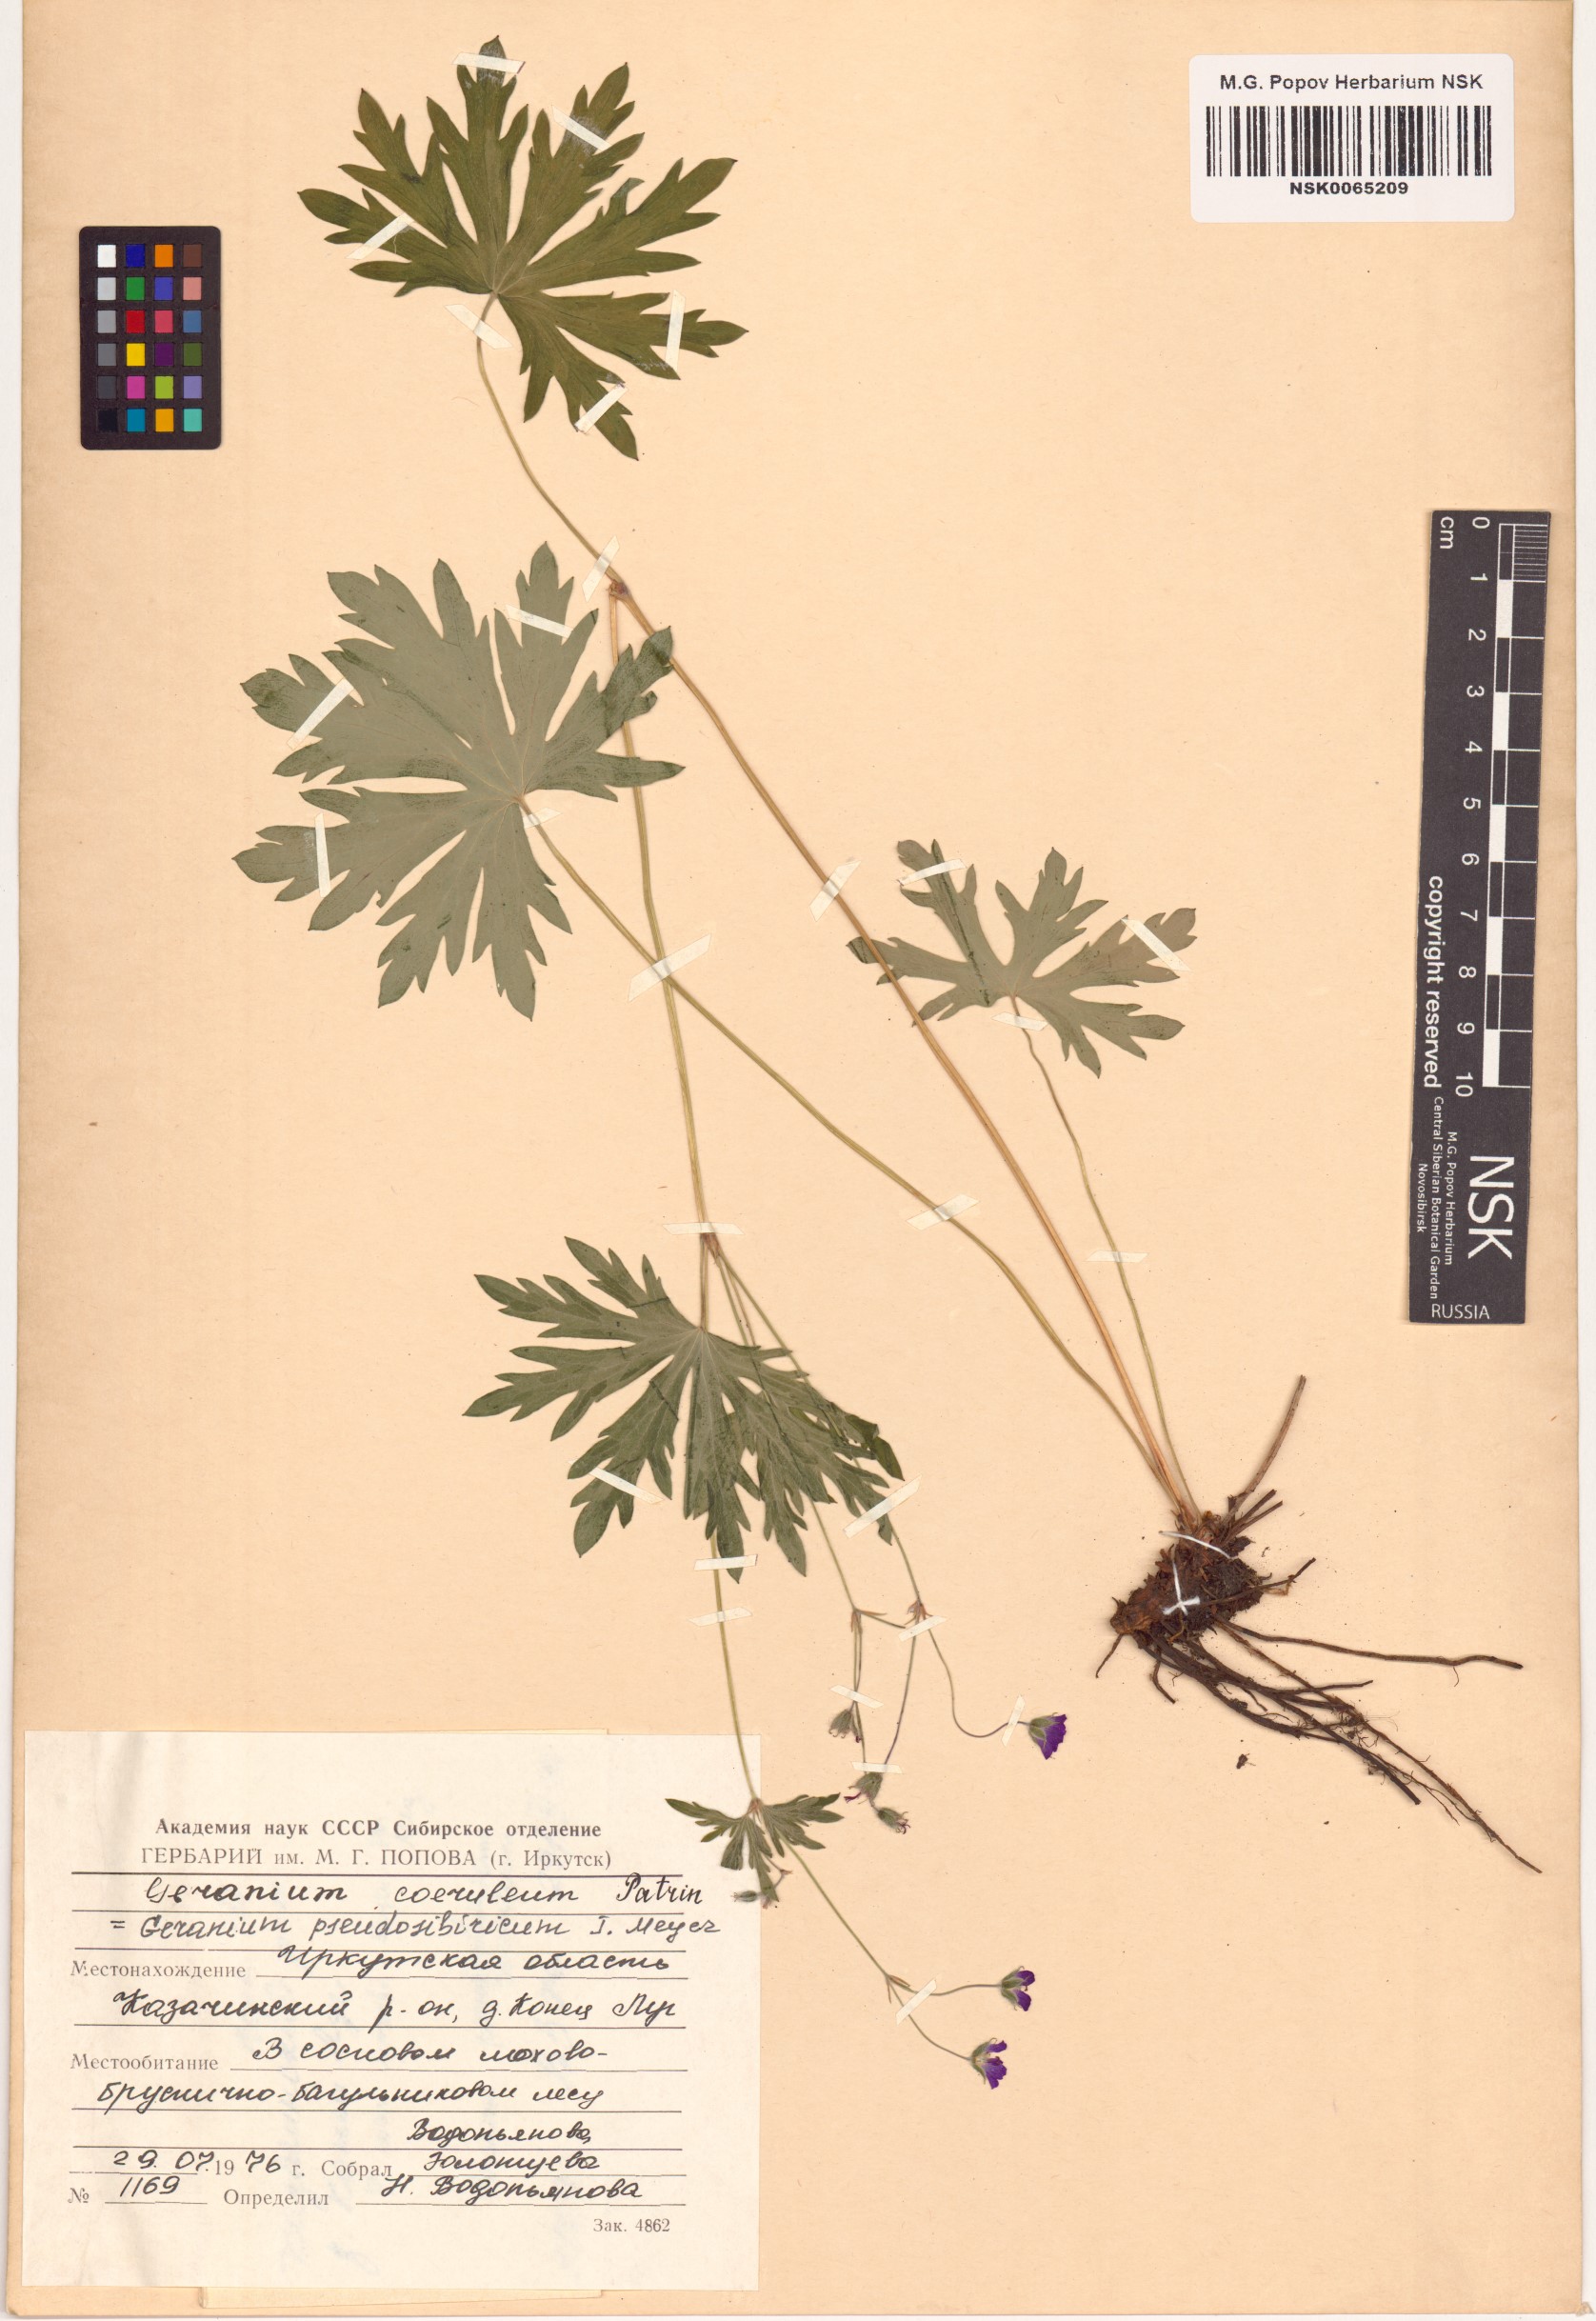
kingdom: Plantae
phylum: Tracheophyta
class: Magnoliopsida
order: Geraniales
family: Geraniaceae
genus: Geranium
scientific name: Geranium pseudosibiricum
